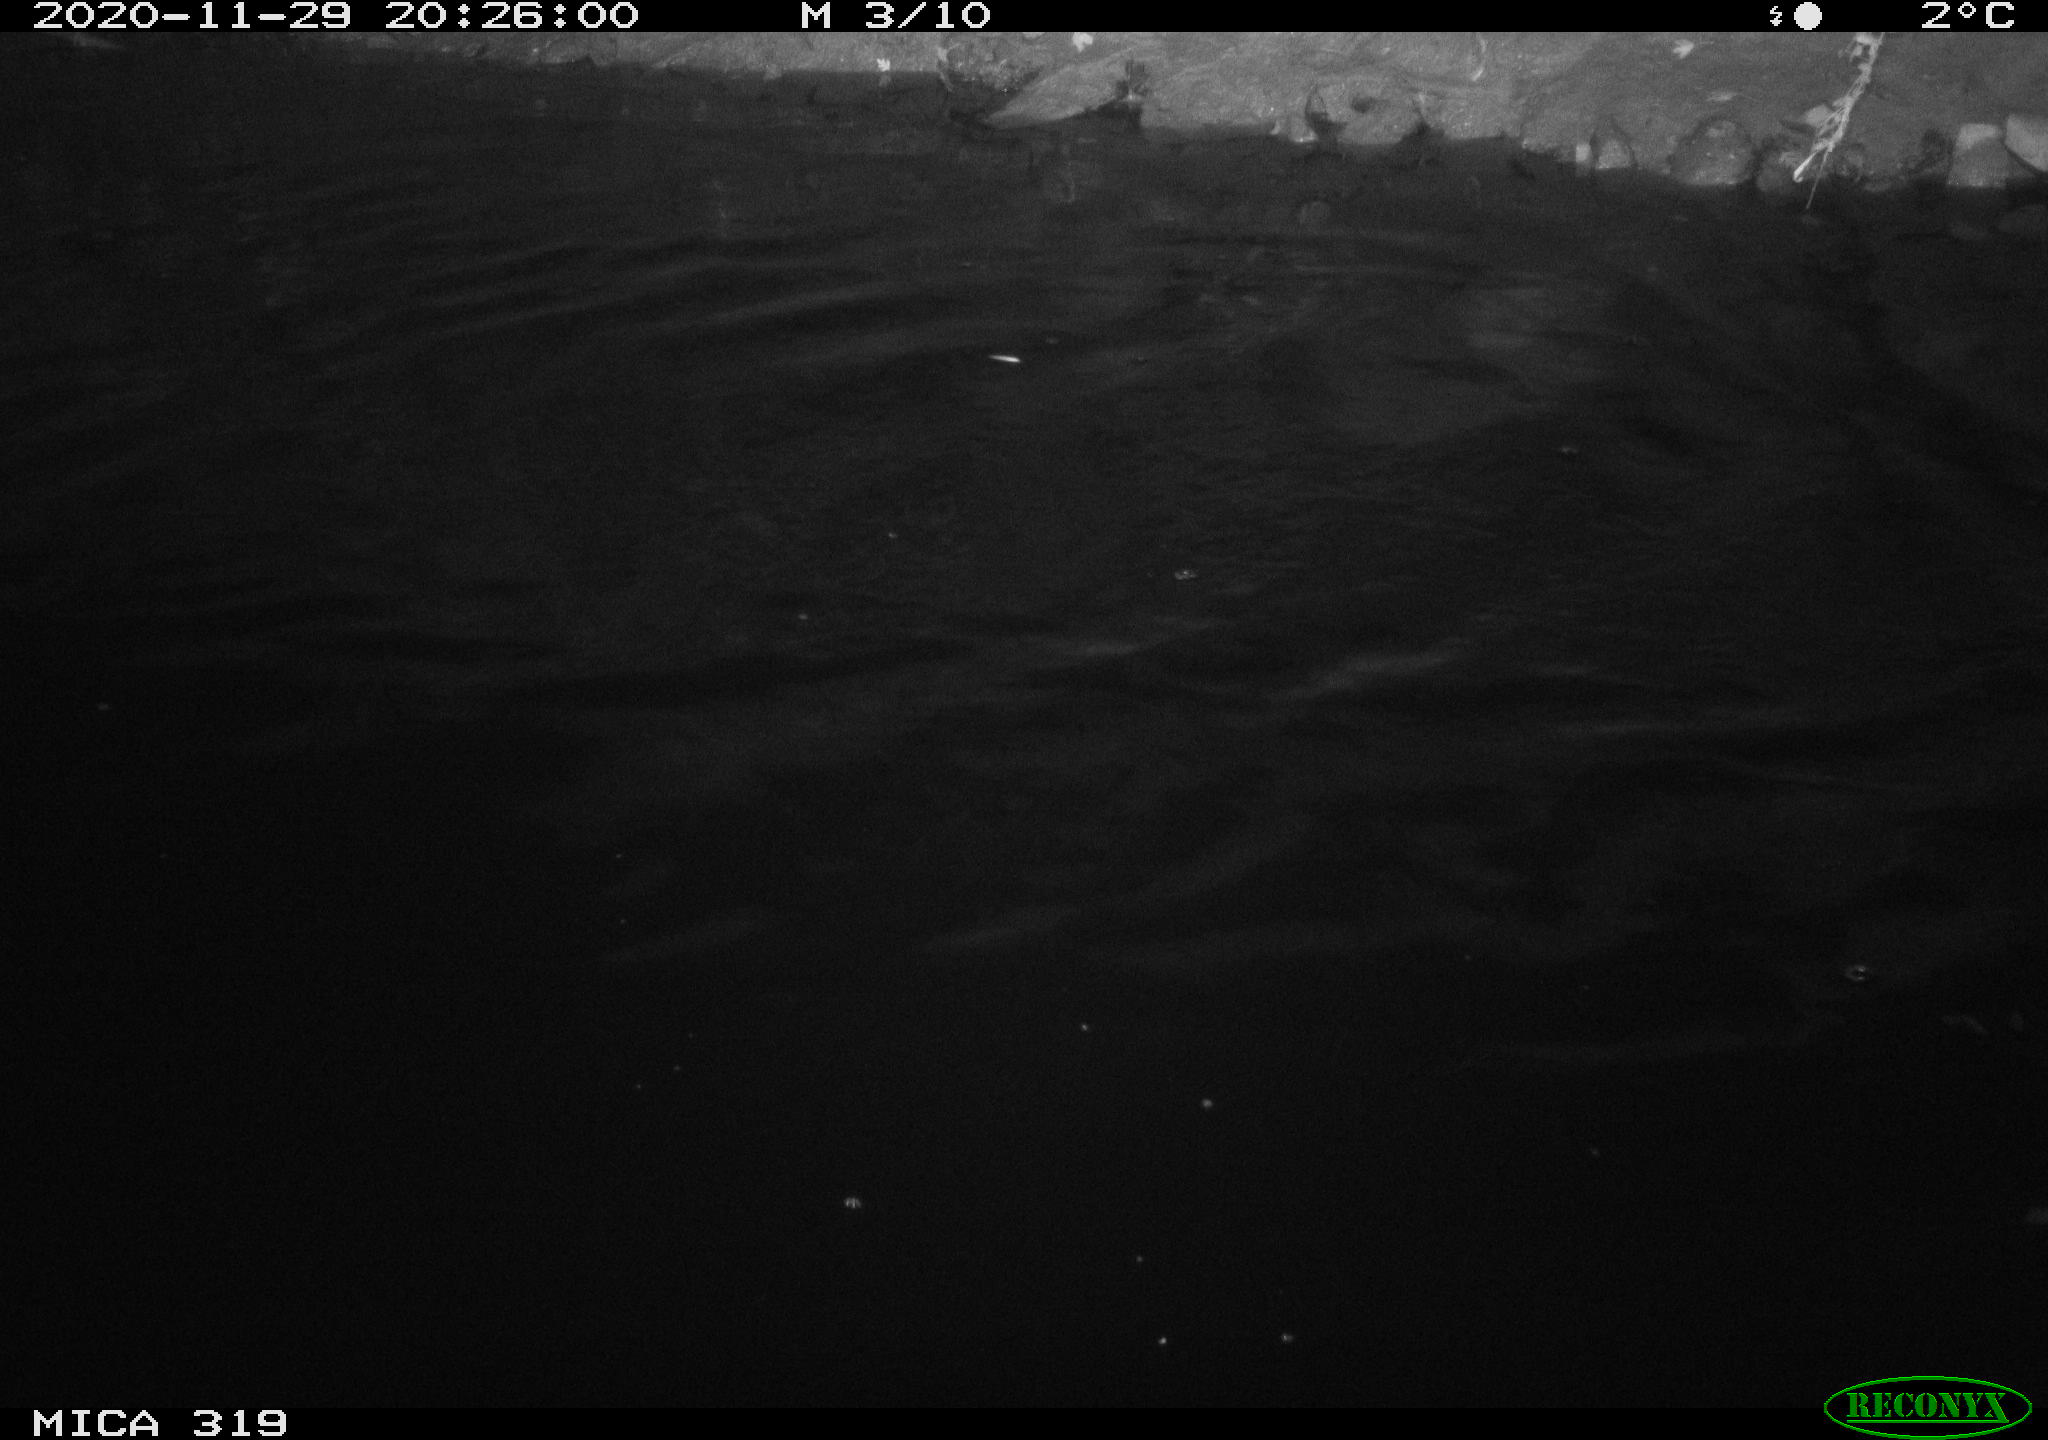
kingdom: Animalia
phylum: Chordata
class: Aves
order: Anseriformes
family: Anatidae
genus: Anas
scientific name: Anas platyrhynchos
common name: Mallard
